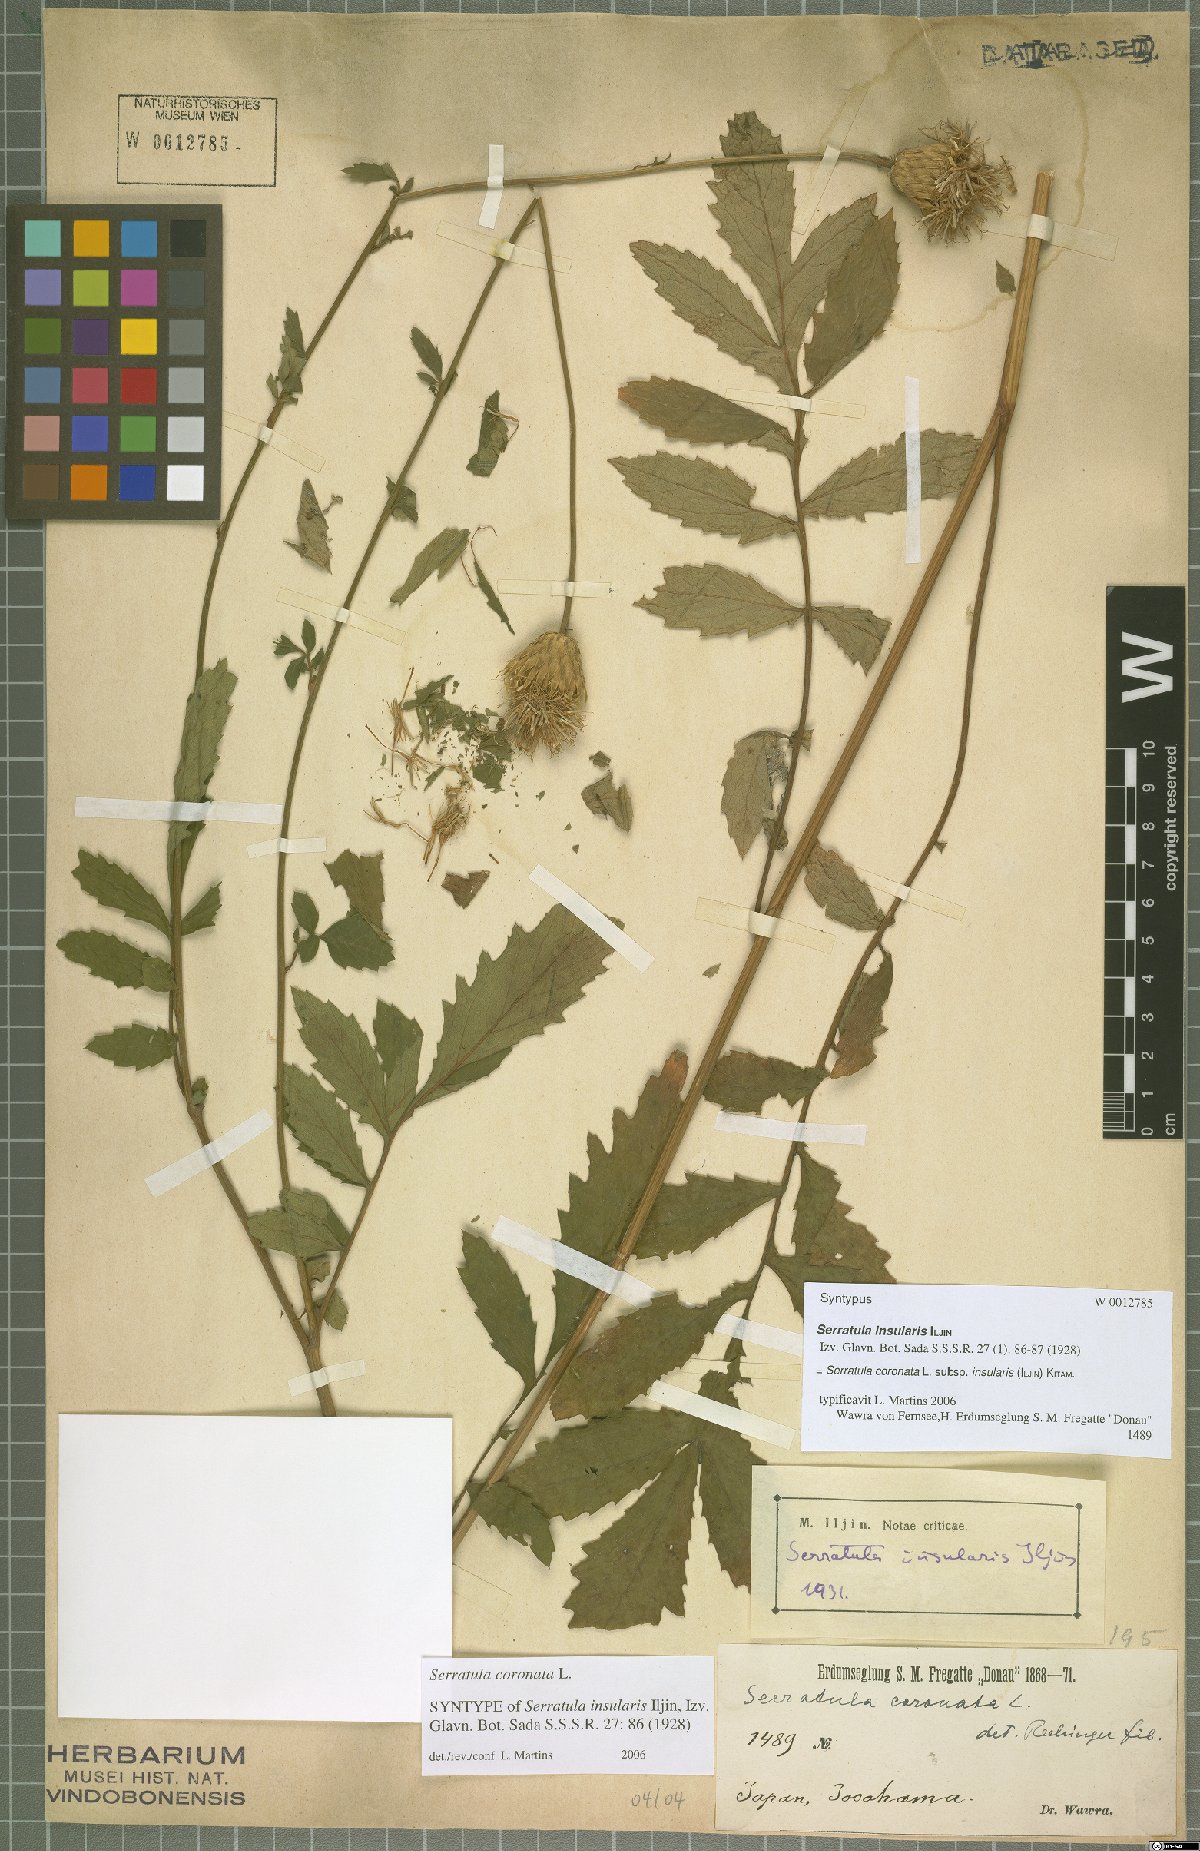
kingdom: Plantae
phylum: Tracheophyta
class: Magnoliopsida
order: Asterales
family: Asteraceae
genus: Serratula
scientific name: Serratula coronata
